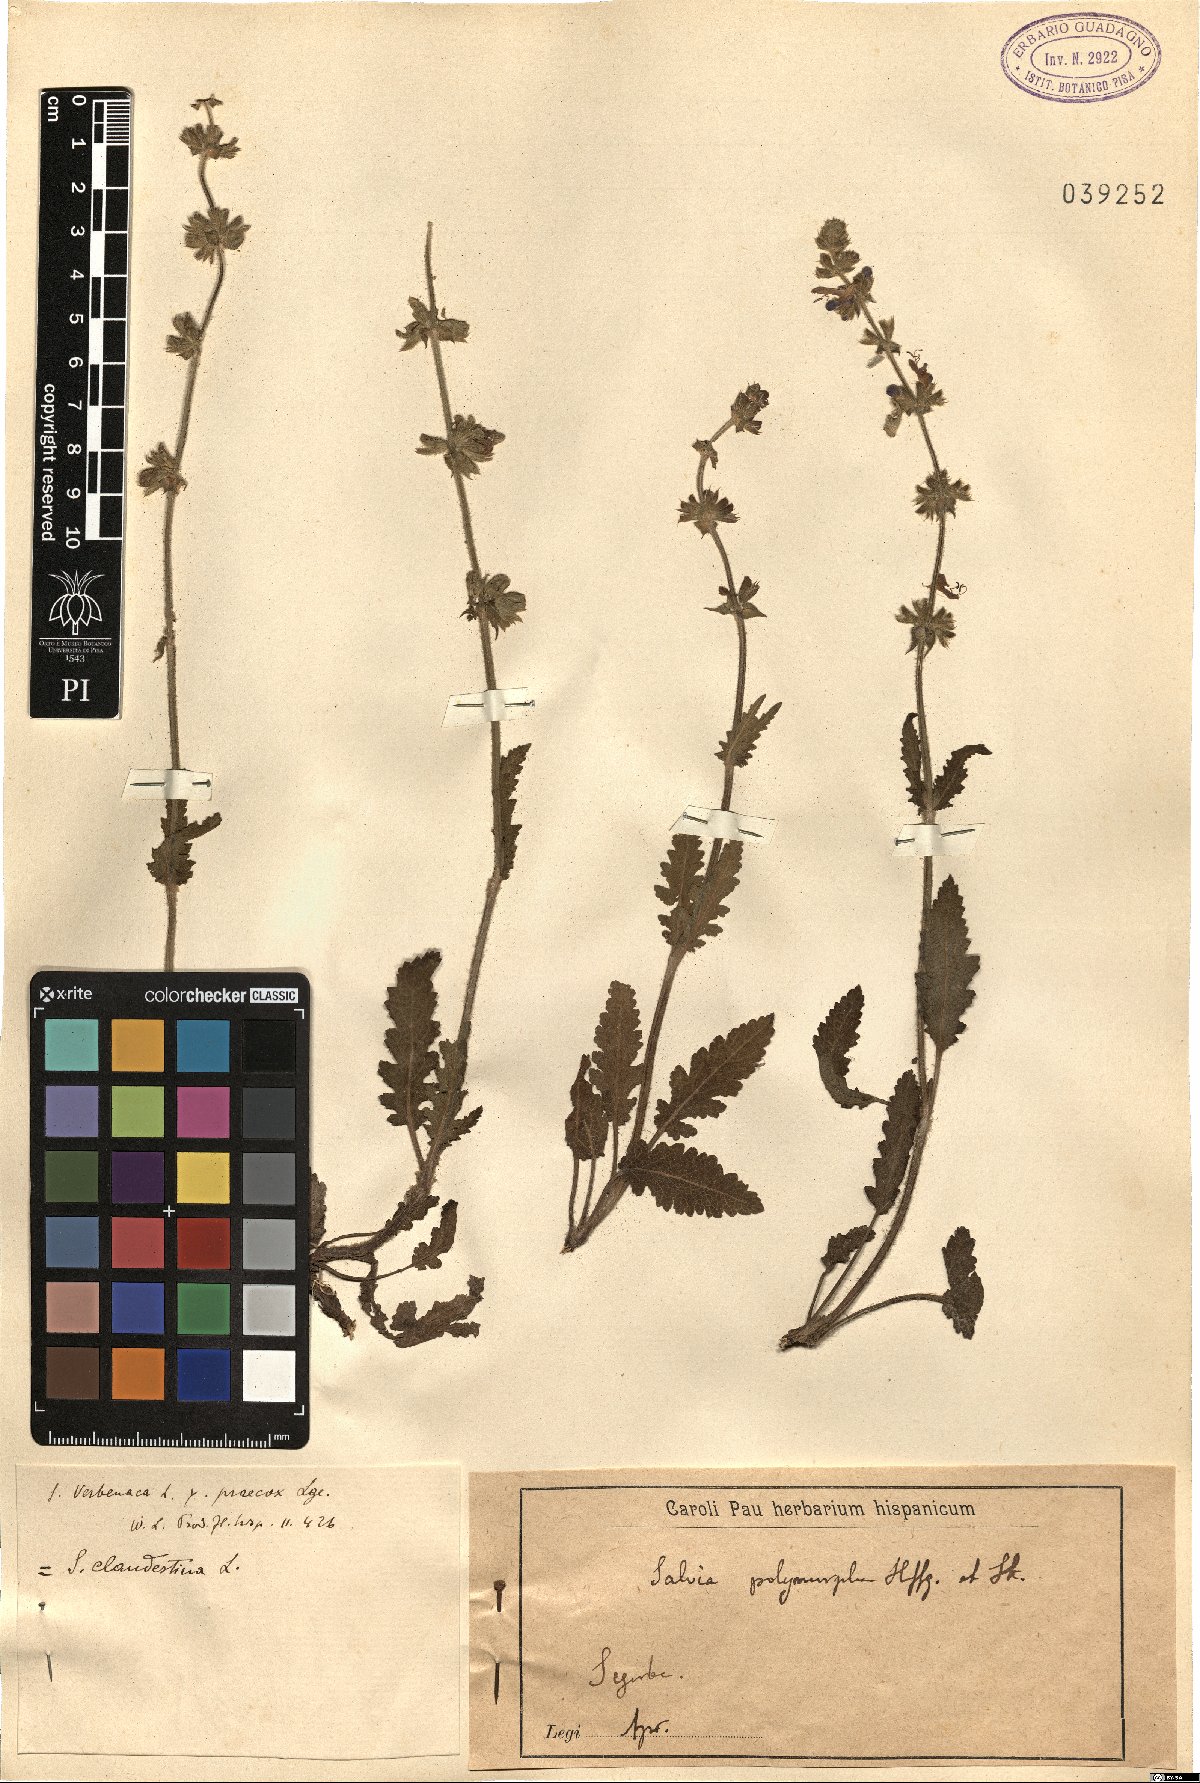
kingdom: Plantae
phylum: Tracheophyta
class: Magnoliopsida
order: Lamiales
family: Lamiaceae
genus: Salvia
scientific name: Salvia verbenaca
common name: Wild clary
